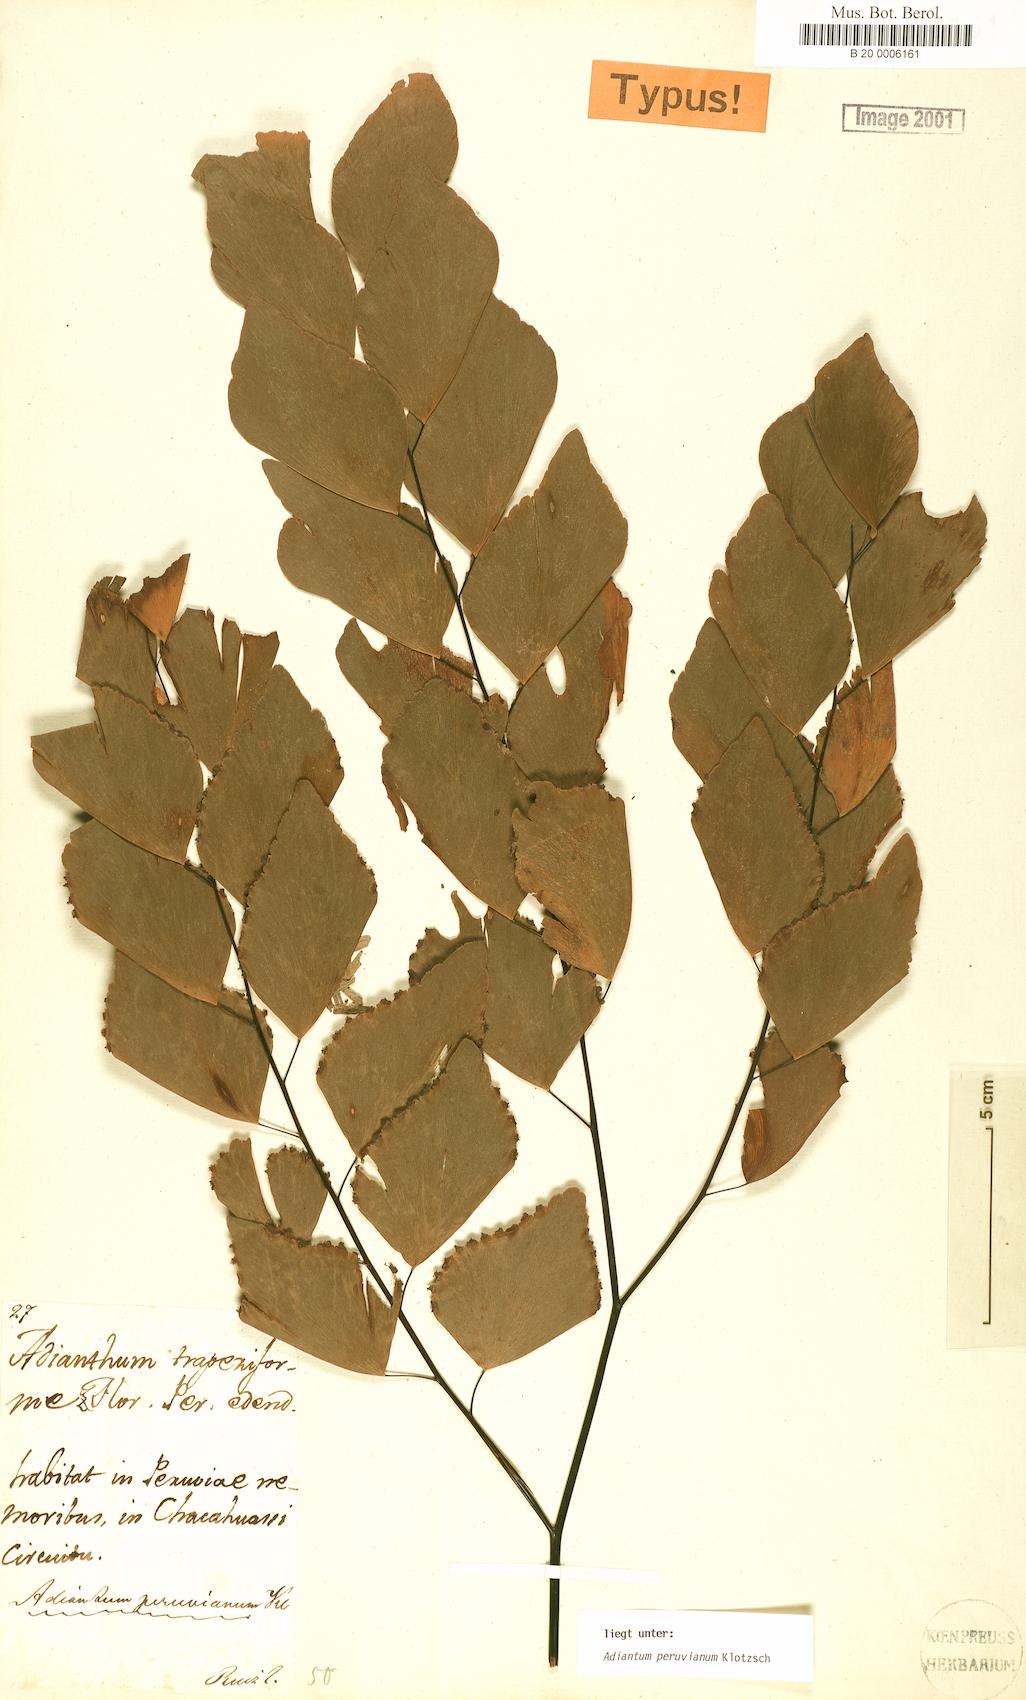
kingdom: Plantae
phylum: Tracheophyta
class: Polypodiopsida
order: Polypodiales
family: Pteridaceae
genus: Adiantum
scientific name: Adiantum peruvianum
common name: Silver-dollar maidenhair fern
